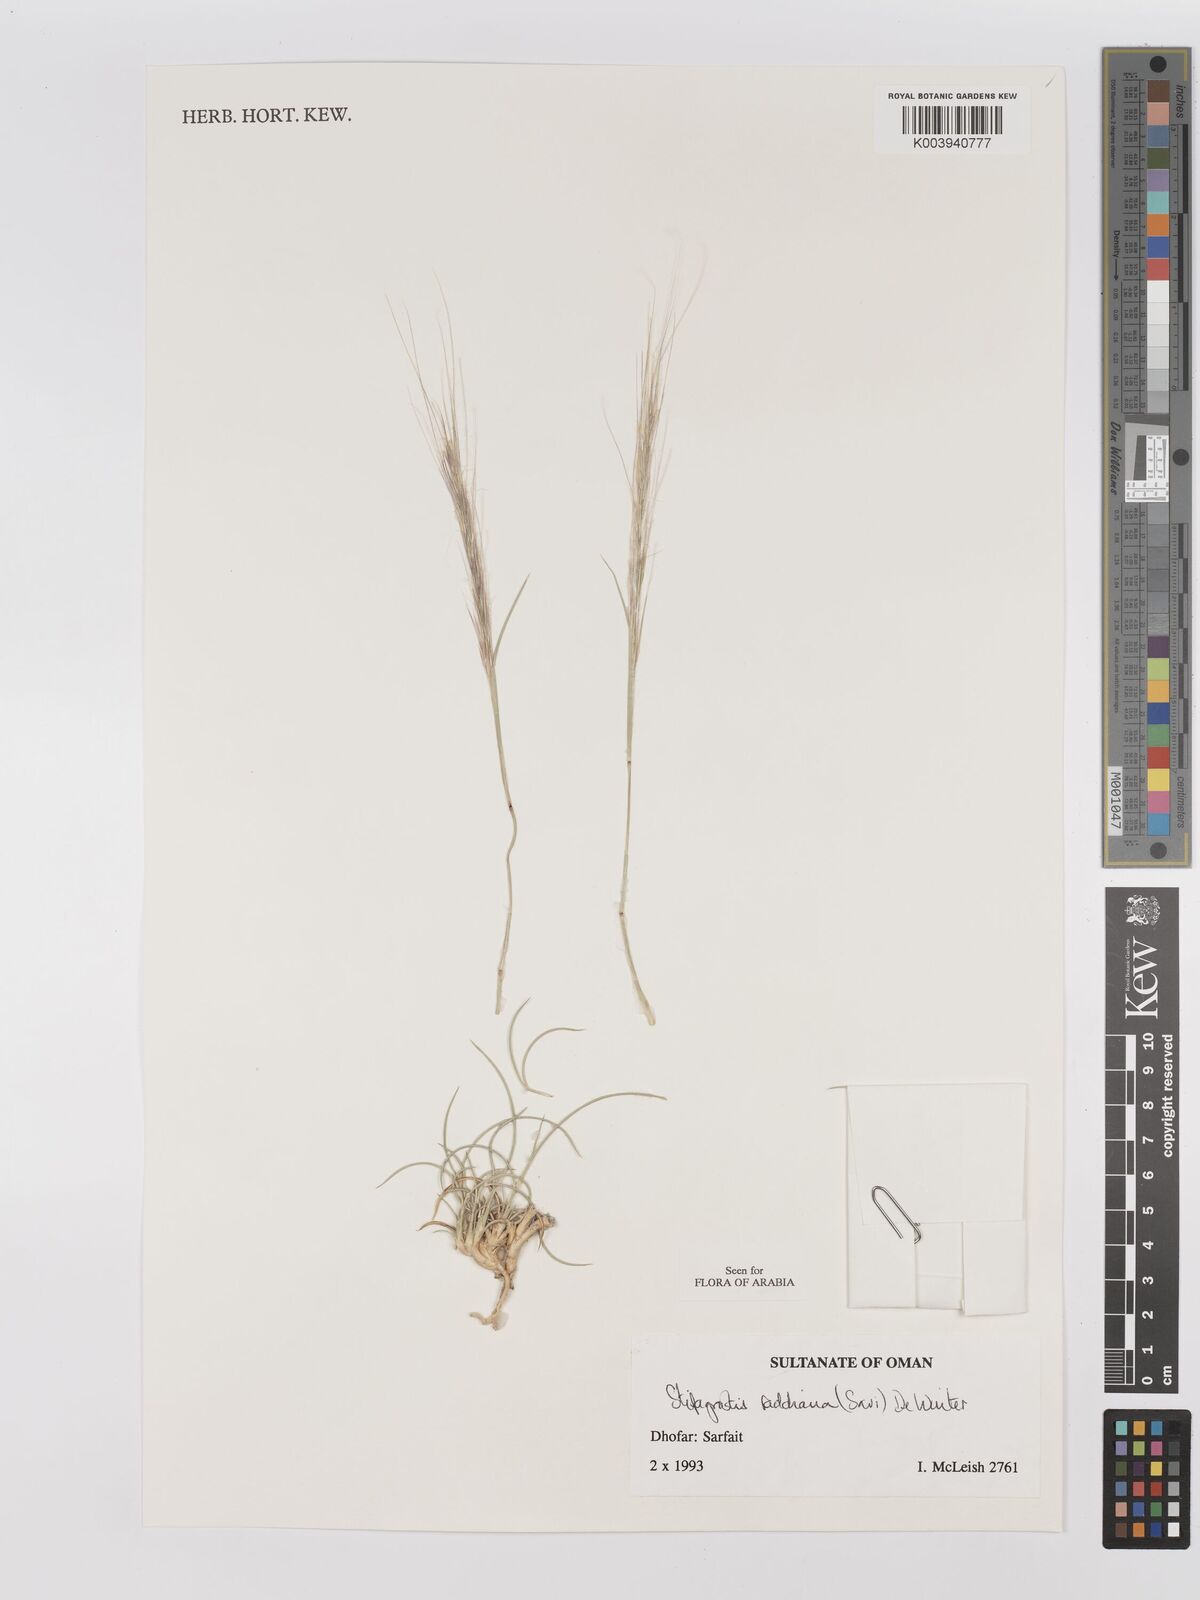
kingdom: Plantae
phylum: Tracheophyta
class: Liliopsida
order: Poales
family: Poaceae
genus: Stipagrostis
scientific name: Stipagrostis raddiana
